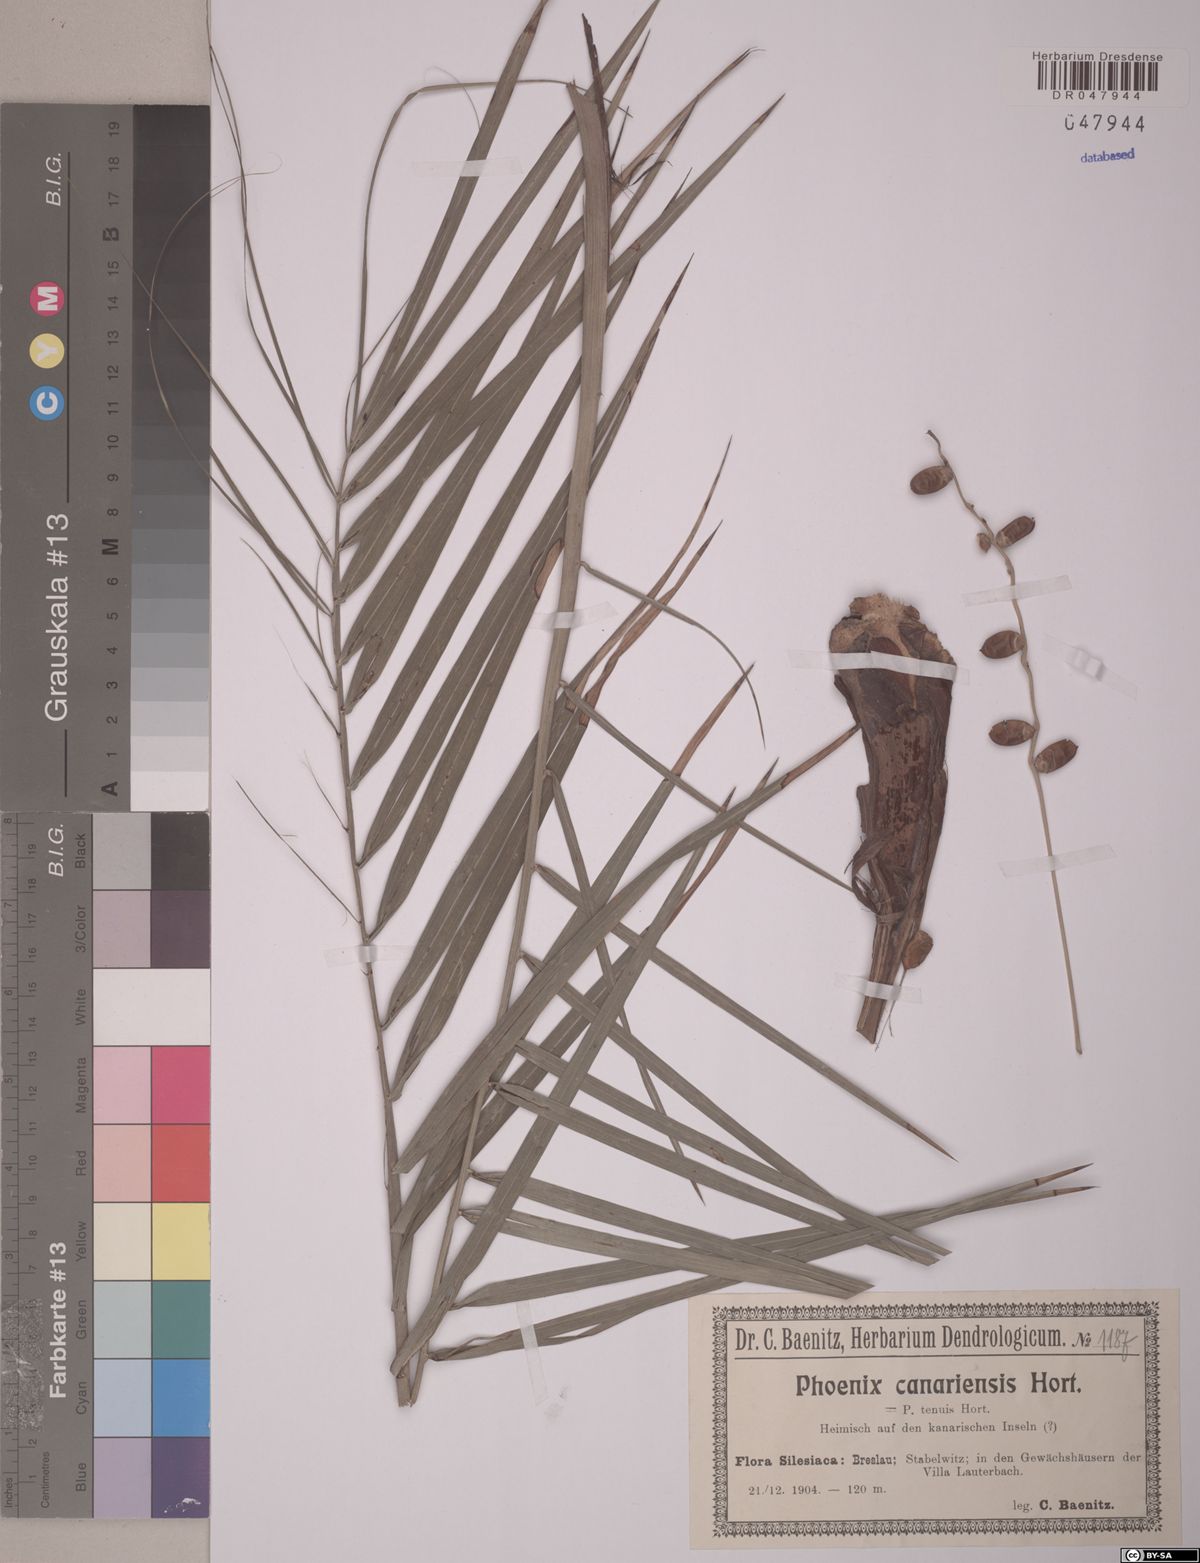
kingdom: Plantae
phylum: Tracheophyta
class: Liliopsida
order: Arecales
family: Arecaceae
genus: Phoenix
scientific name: Phoenix canariensis
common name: Canary island date palm
